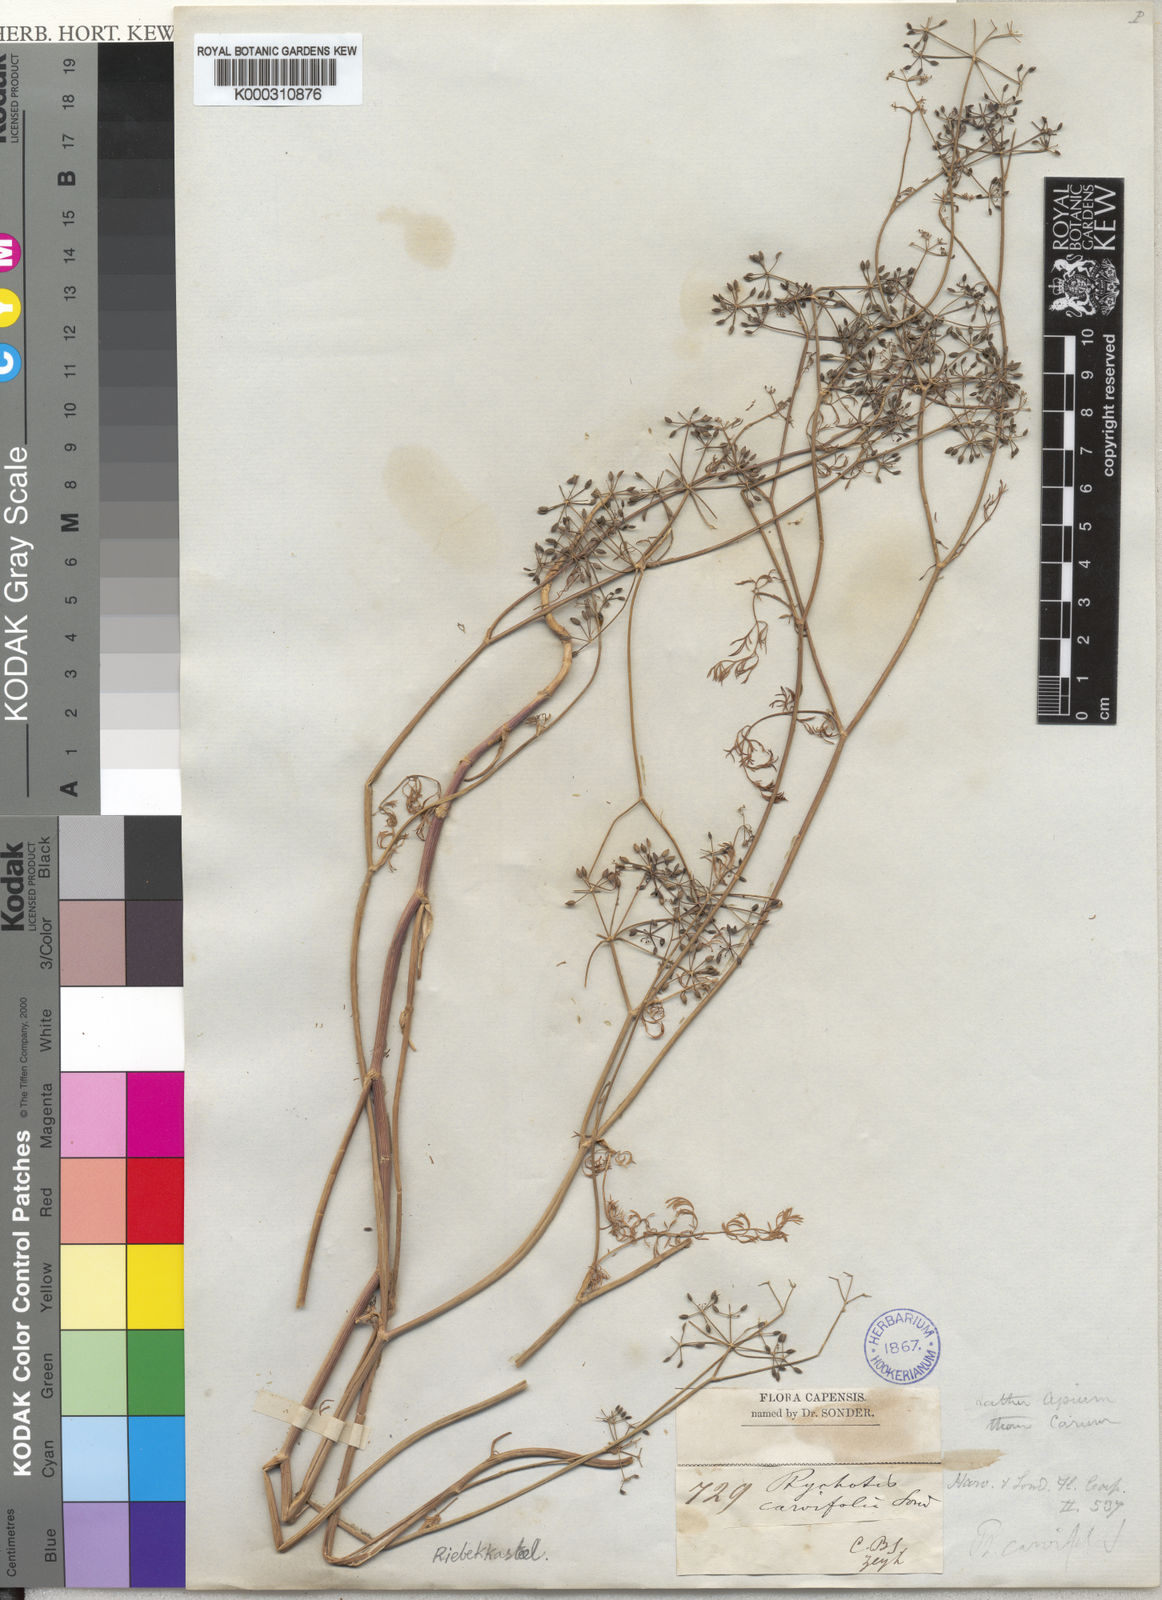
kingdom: Plantae
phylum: Tracheophyta
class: Magnoliopsida
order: Apiales
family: Apiaceae
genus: Dasispermum
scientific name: Dasispermum hispidum
